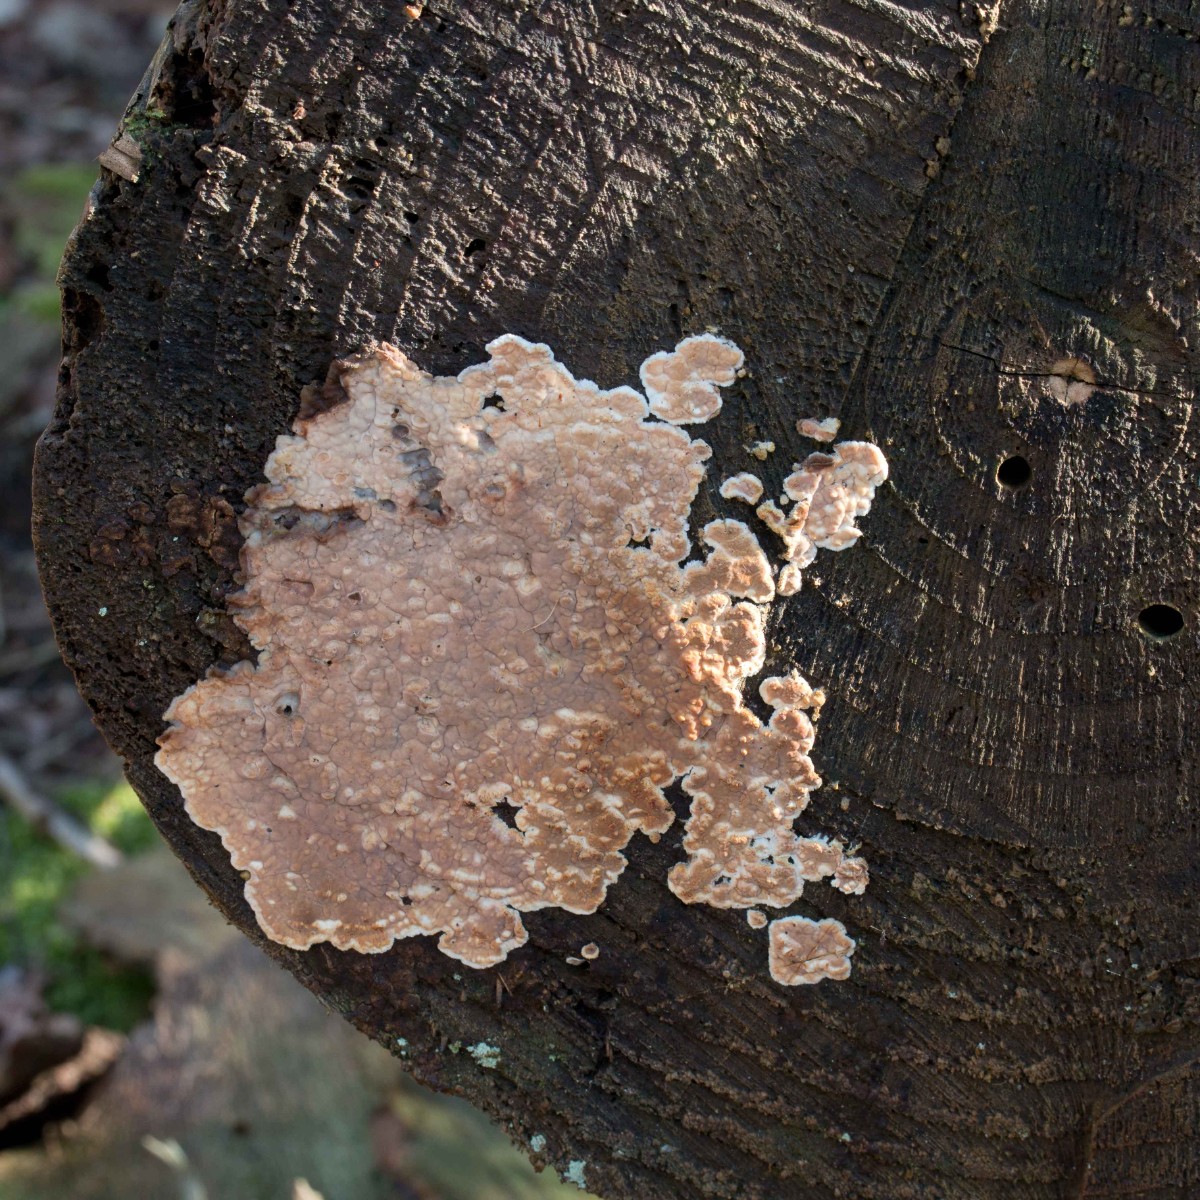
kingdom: Fungi
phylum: Basidiomycota
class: Agaricomycetes
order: Agaricales
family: Physalacriaceae
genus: Cylindrobasidium
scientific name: Cylindrobasidium evolvens
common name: sprækkehinde
